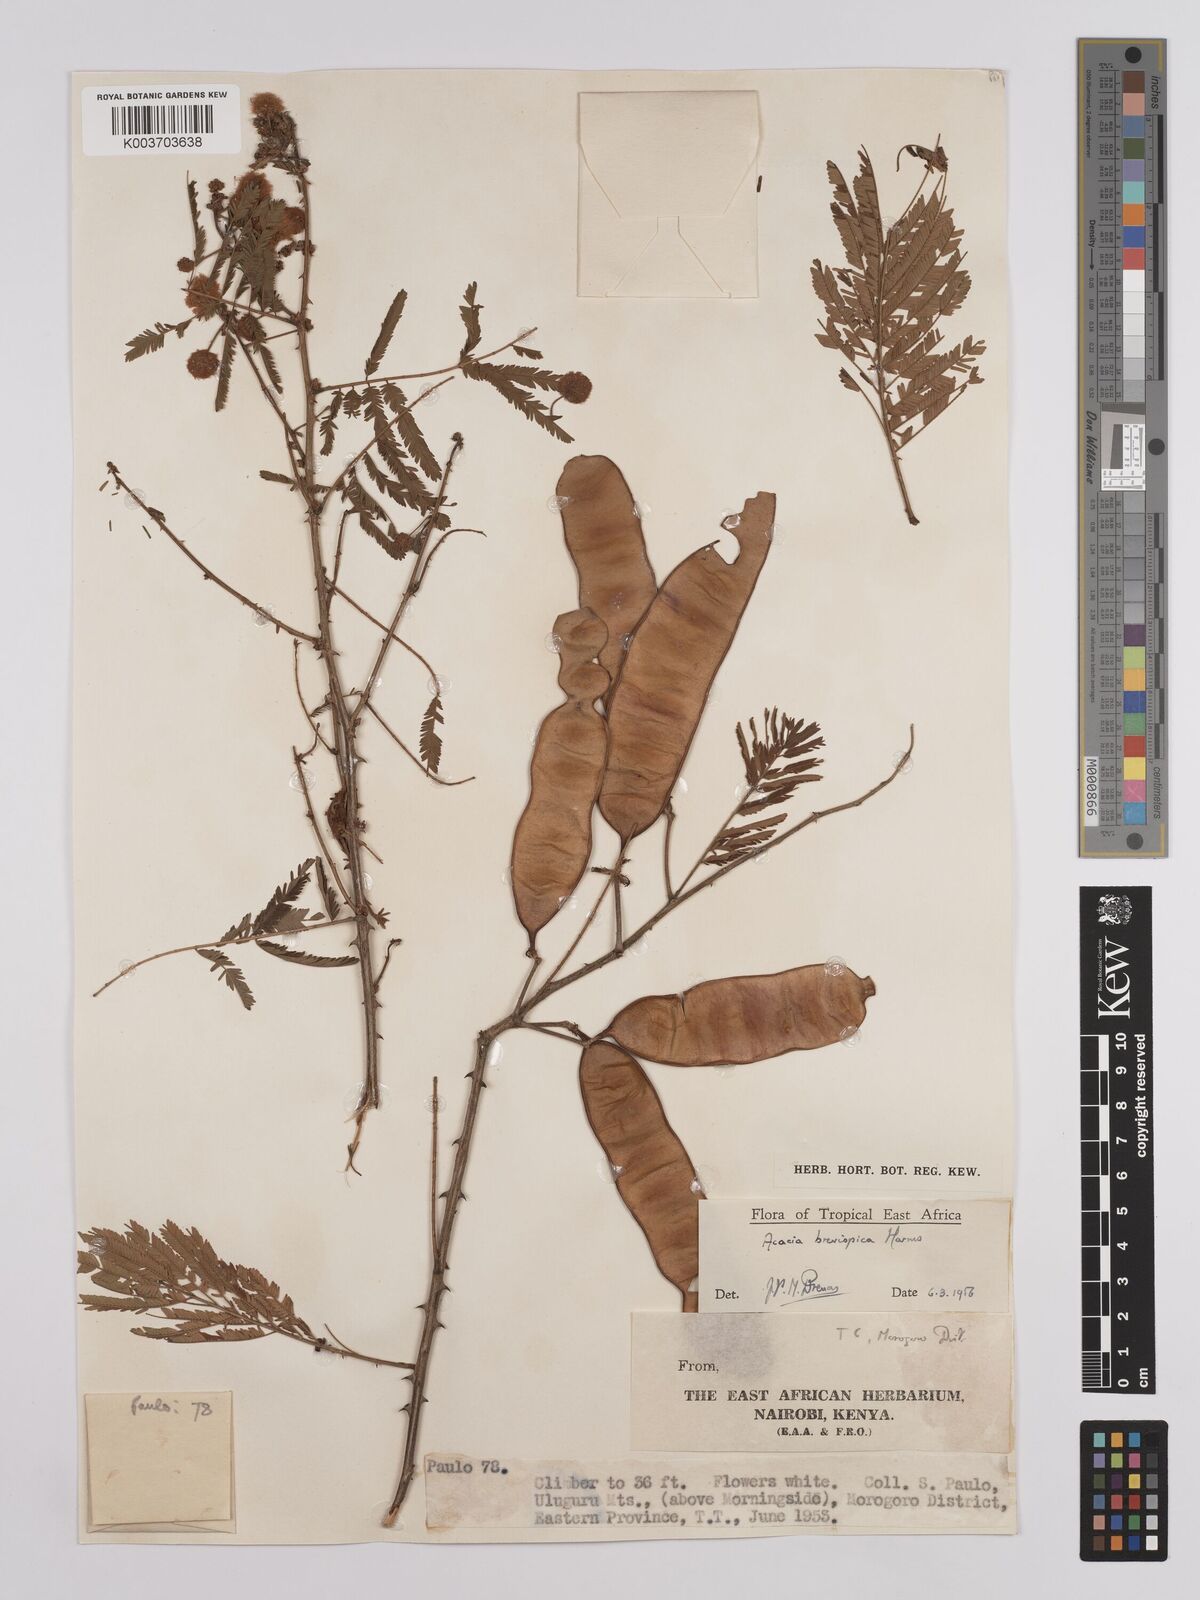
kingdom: Plantae
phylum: Tracheophyta
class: Magnoliopsida
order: Fabales
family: Fabaceae
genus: Senegalia
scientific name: Senegalia brevispica
